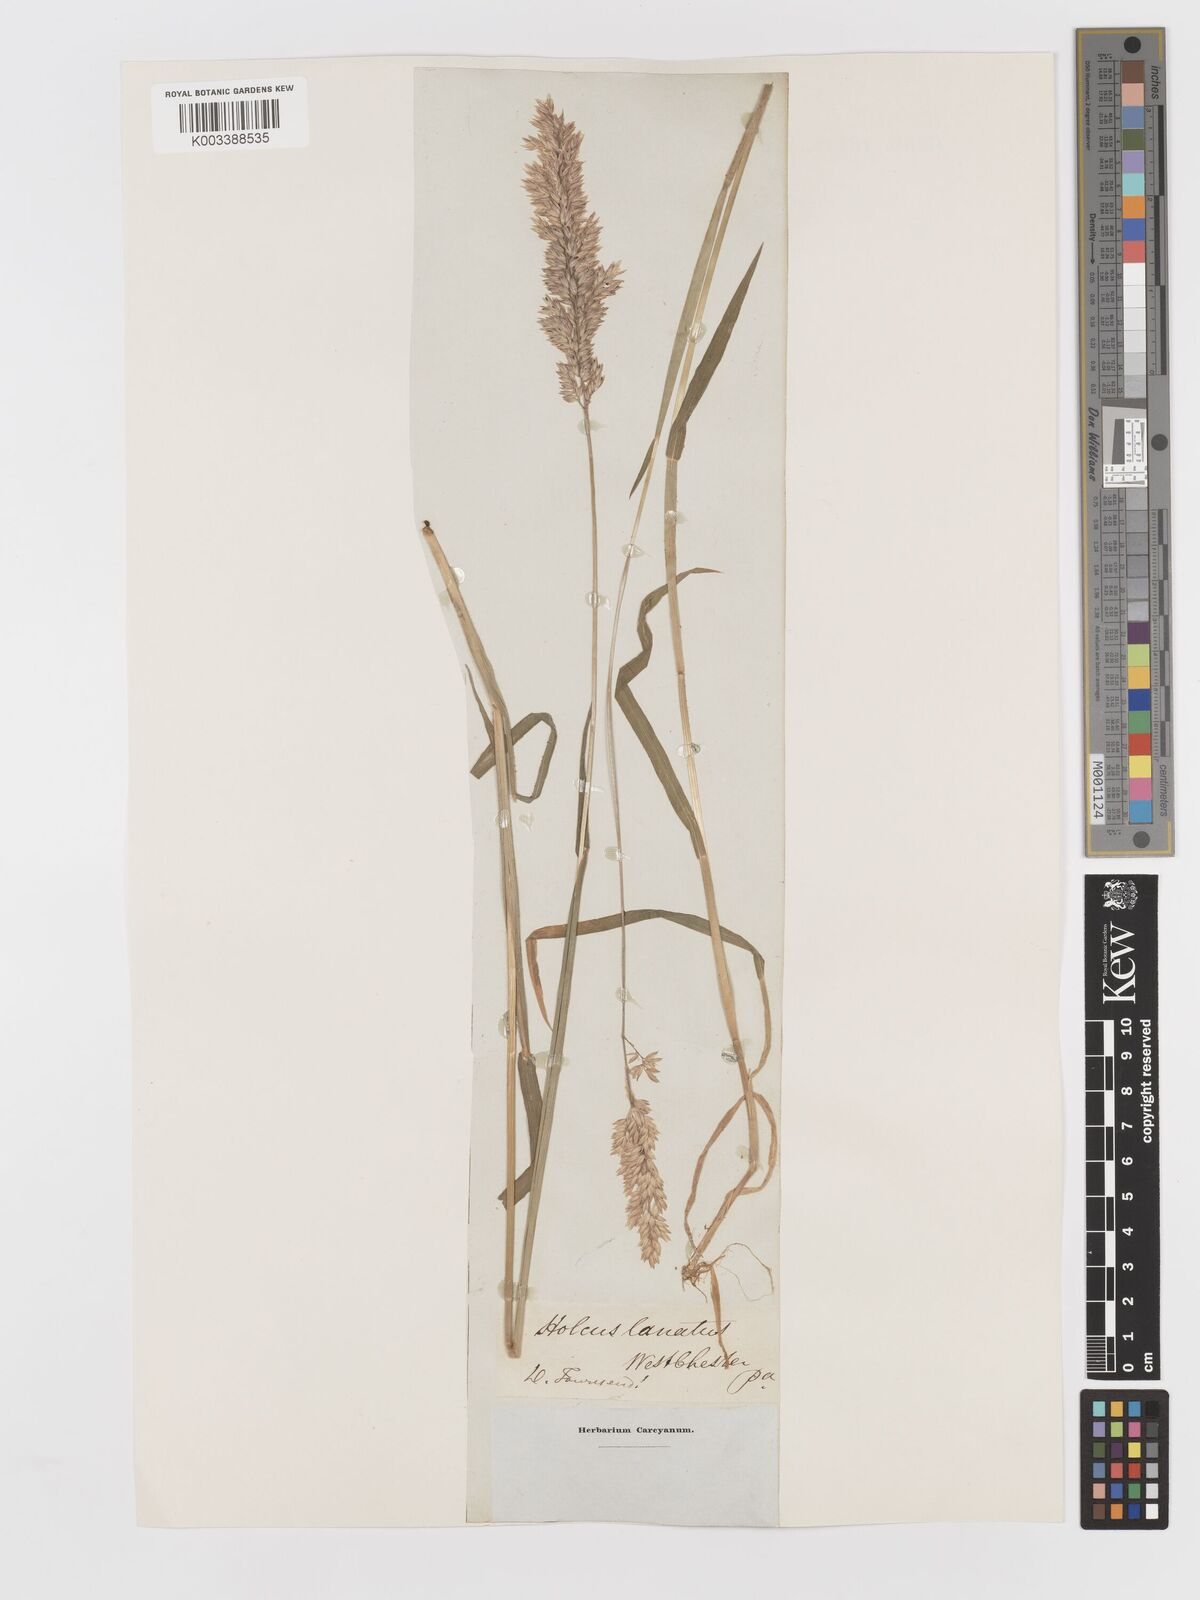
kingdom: Plantae
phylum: Tracheophyta
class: Liliopsida
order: Poales
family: Poaceae
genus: Holcus
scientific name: Holcus lanatus
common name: Yorkshire-fog
